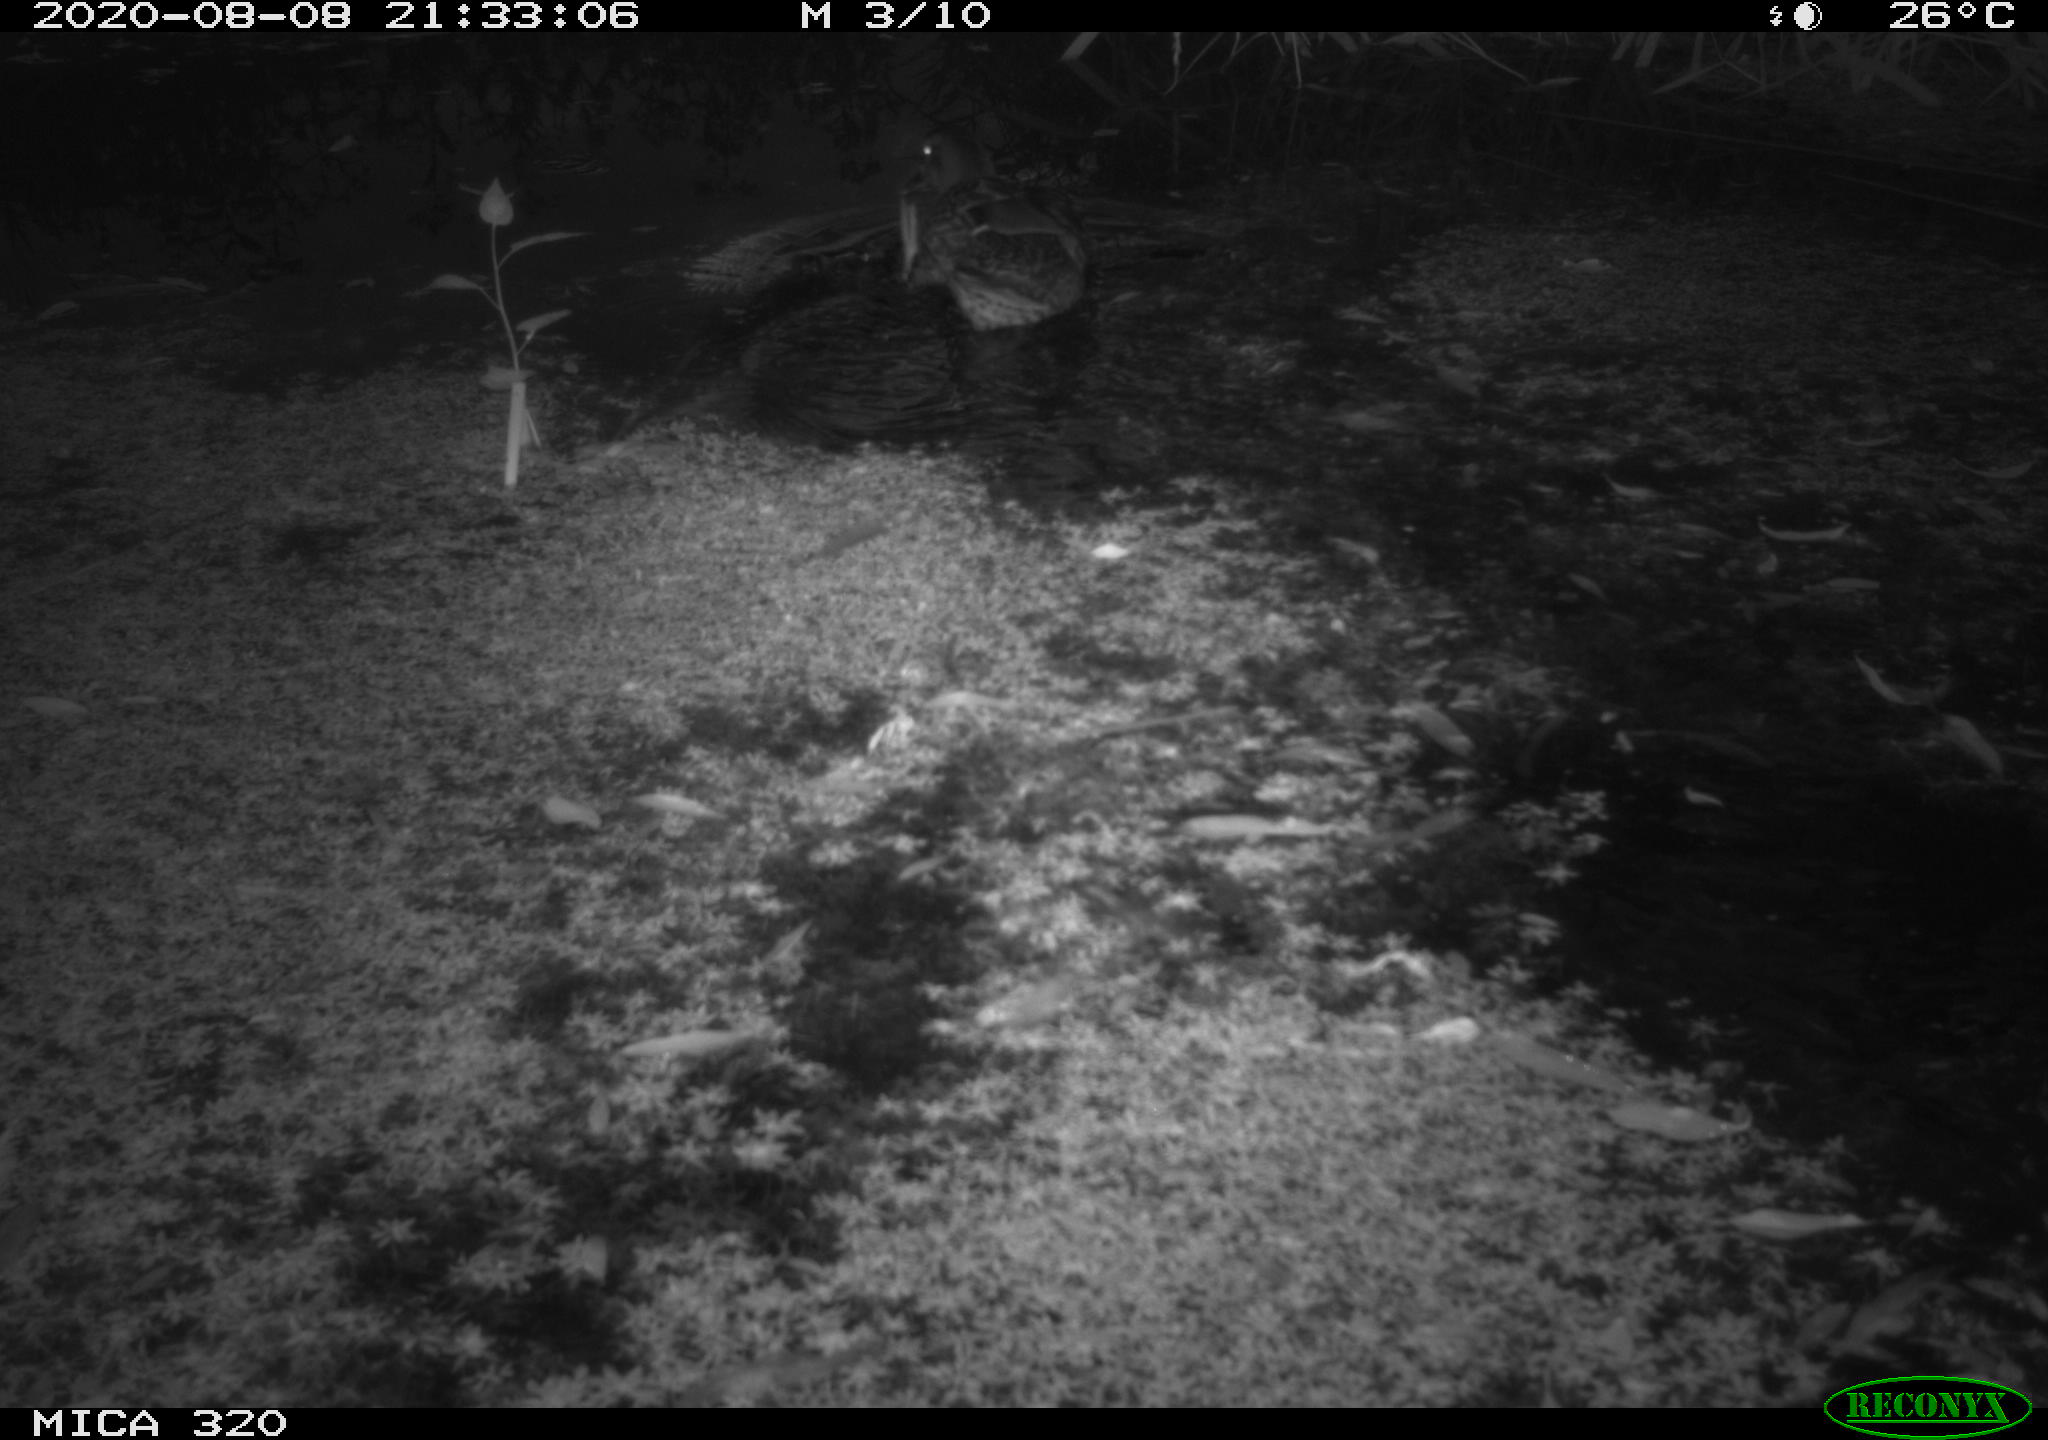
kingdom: Animalia
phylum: Chordata
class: Aves
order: Anseriformes
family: Anatidae
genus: Anas
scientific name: Anas platyrhynchos
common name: Mallard
